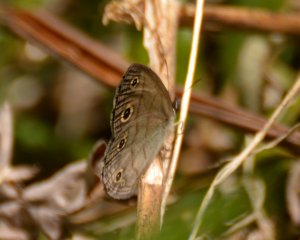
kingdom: Animalia
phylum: Arthropoda
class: Insecta
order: Lepidoptera
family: Nymphalidae
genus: Euptychia
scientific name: Euptychia cymela
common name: Little Wood Satyr
